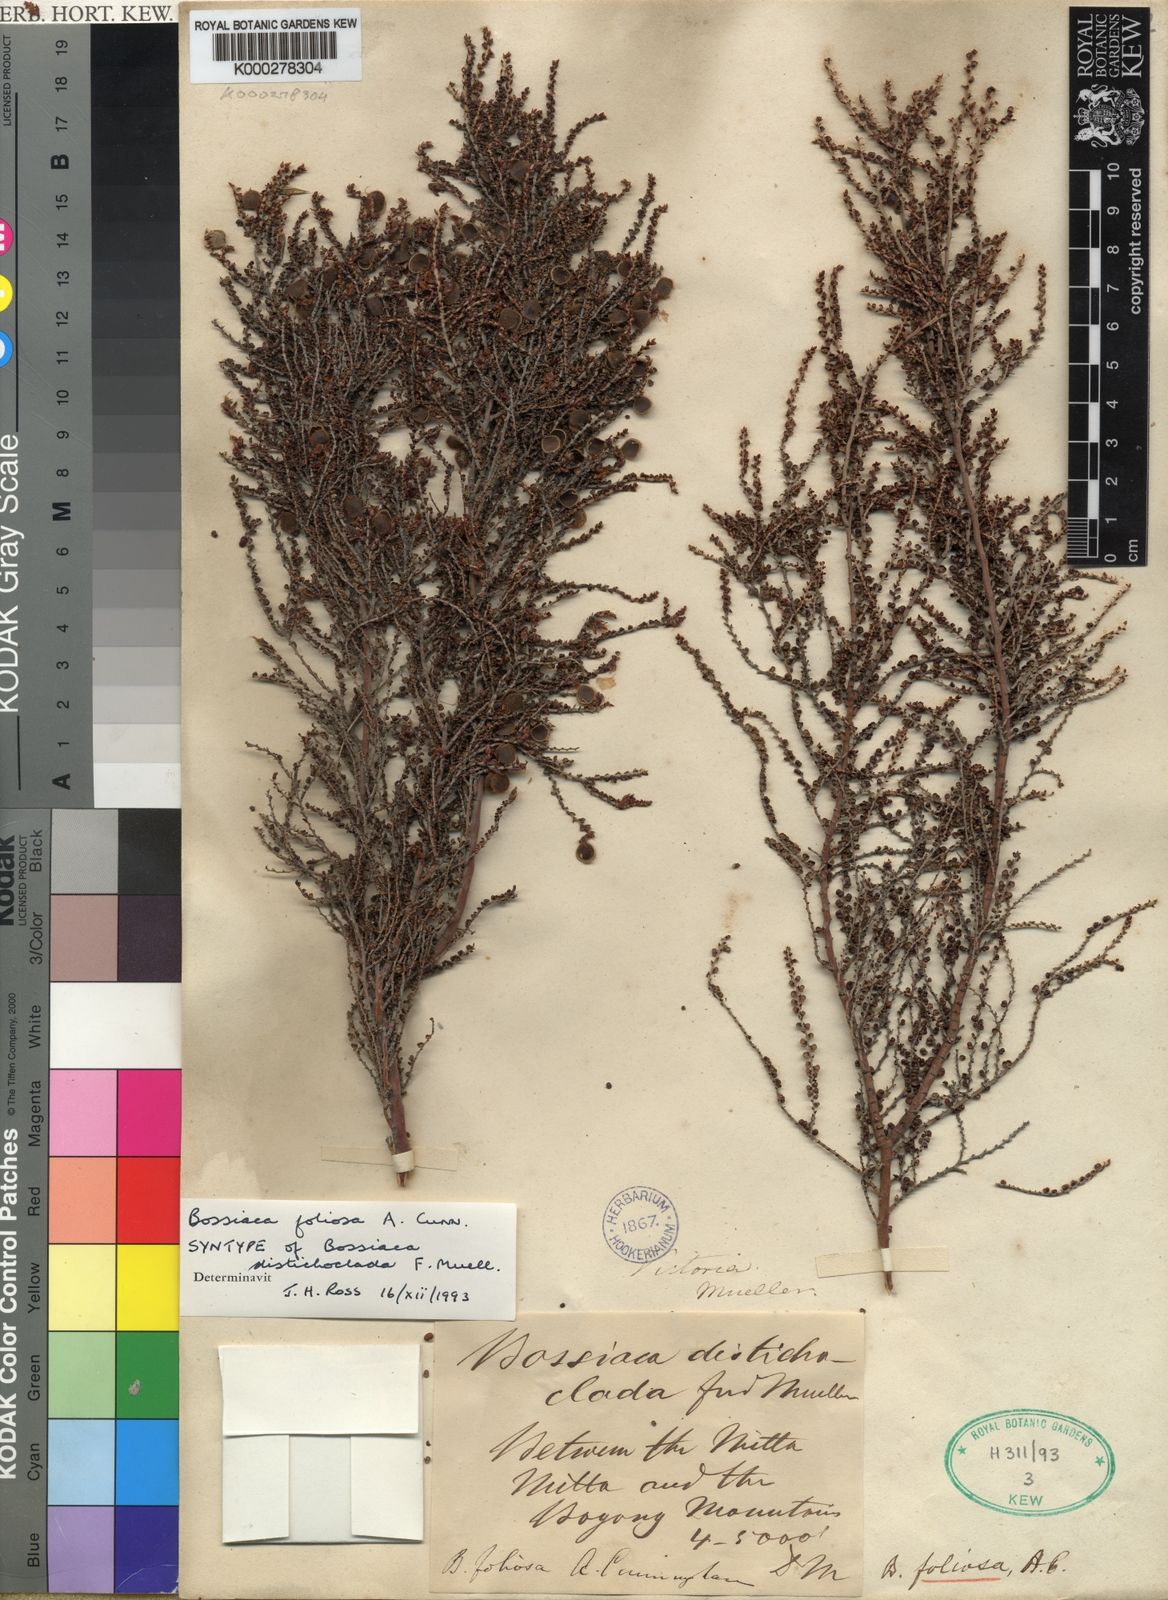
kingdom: Plantae
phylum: Tracheophyta
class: Magnoliopsida
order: Fabales
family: Fabaceae
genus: Bossiaea
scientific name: Bossiaea foliosa
